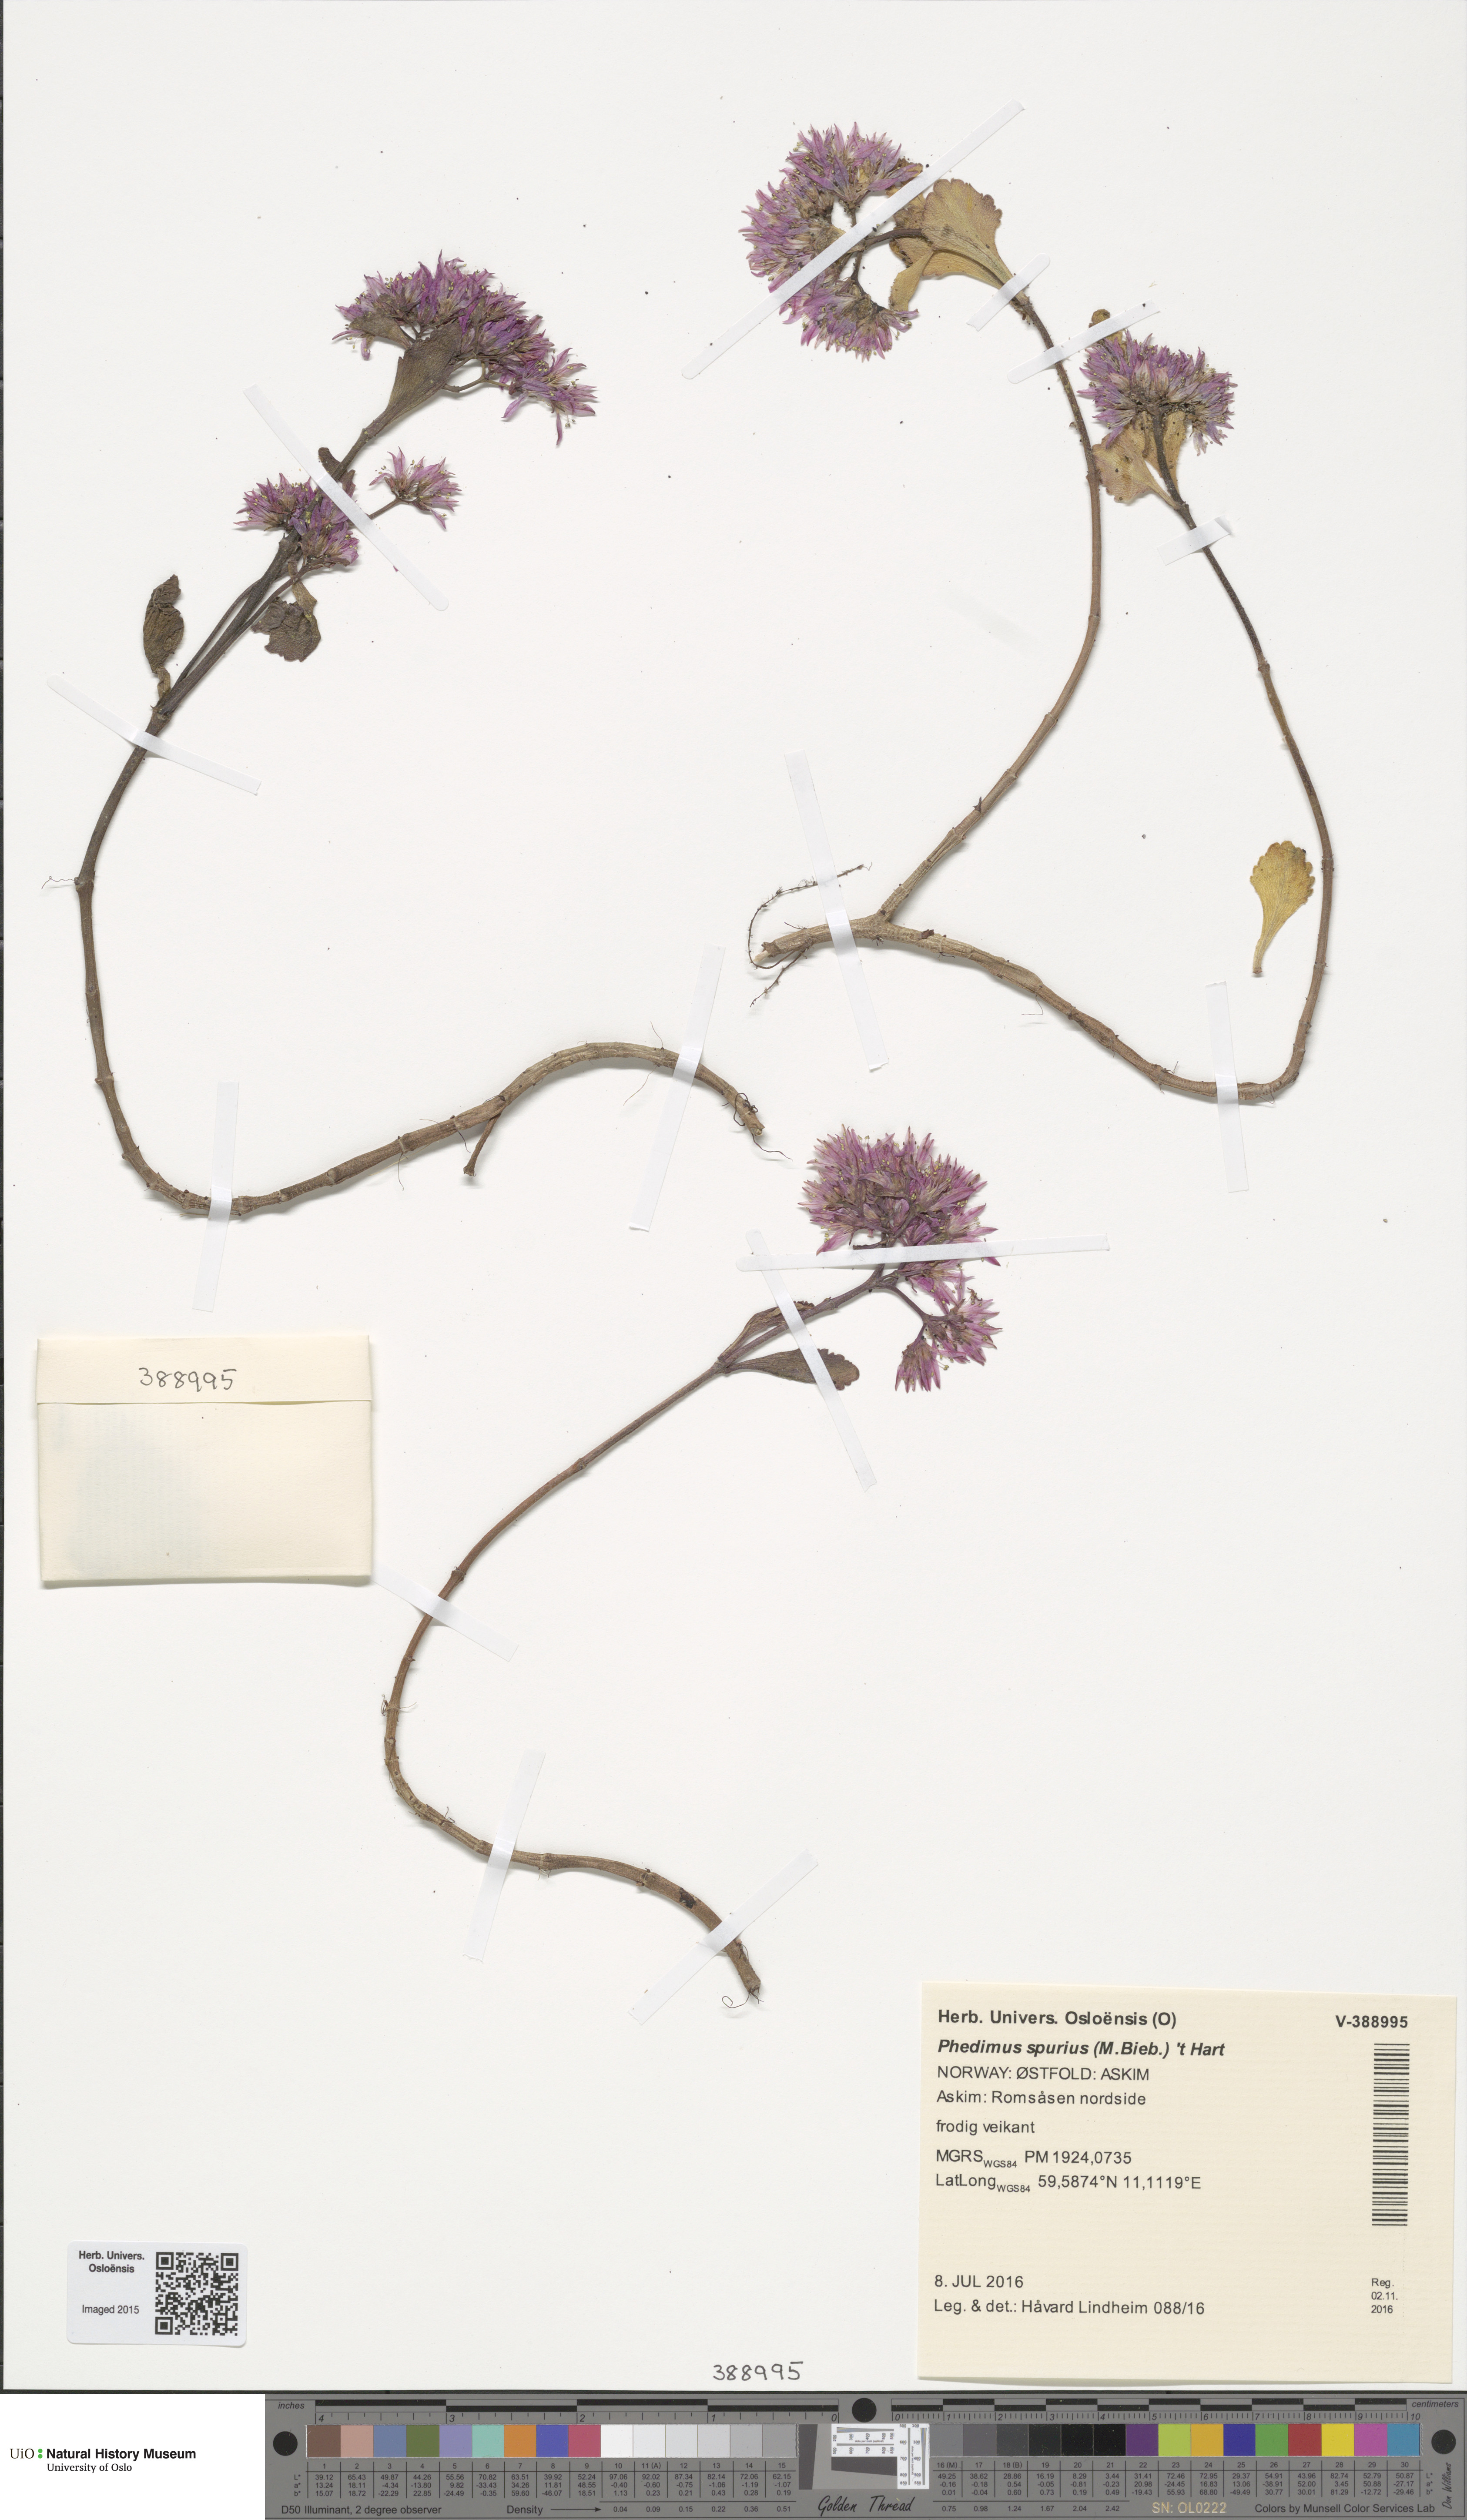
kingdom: Plantae
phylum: Tracheophyta
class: Magnoliopsida
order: Saxifragales
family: Crassulaceae
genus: Phedimus
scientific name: Phedimus spurius
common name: Caucasian stonecrop
